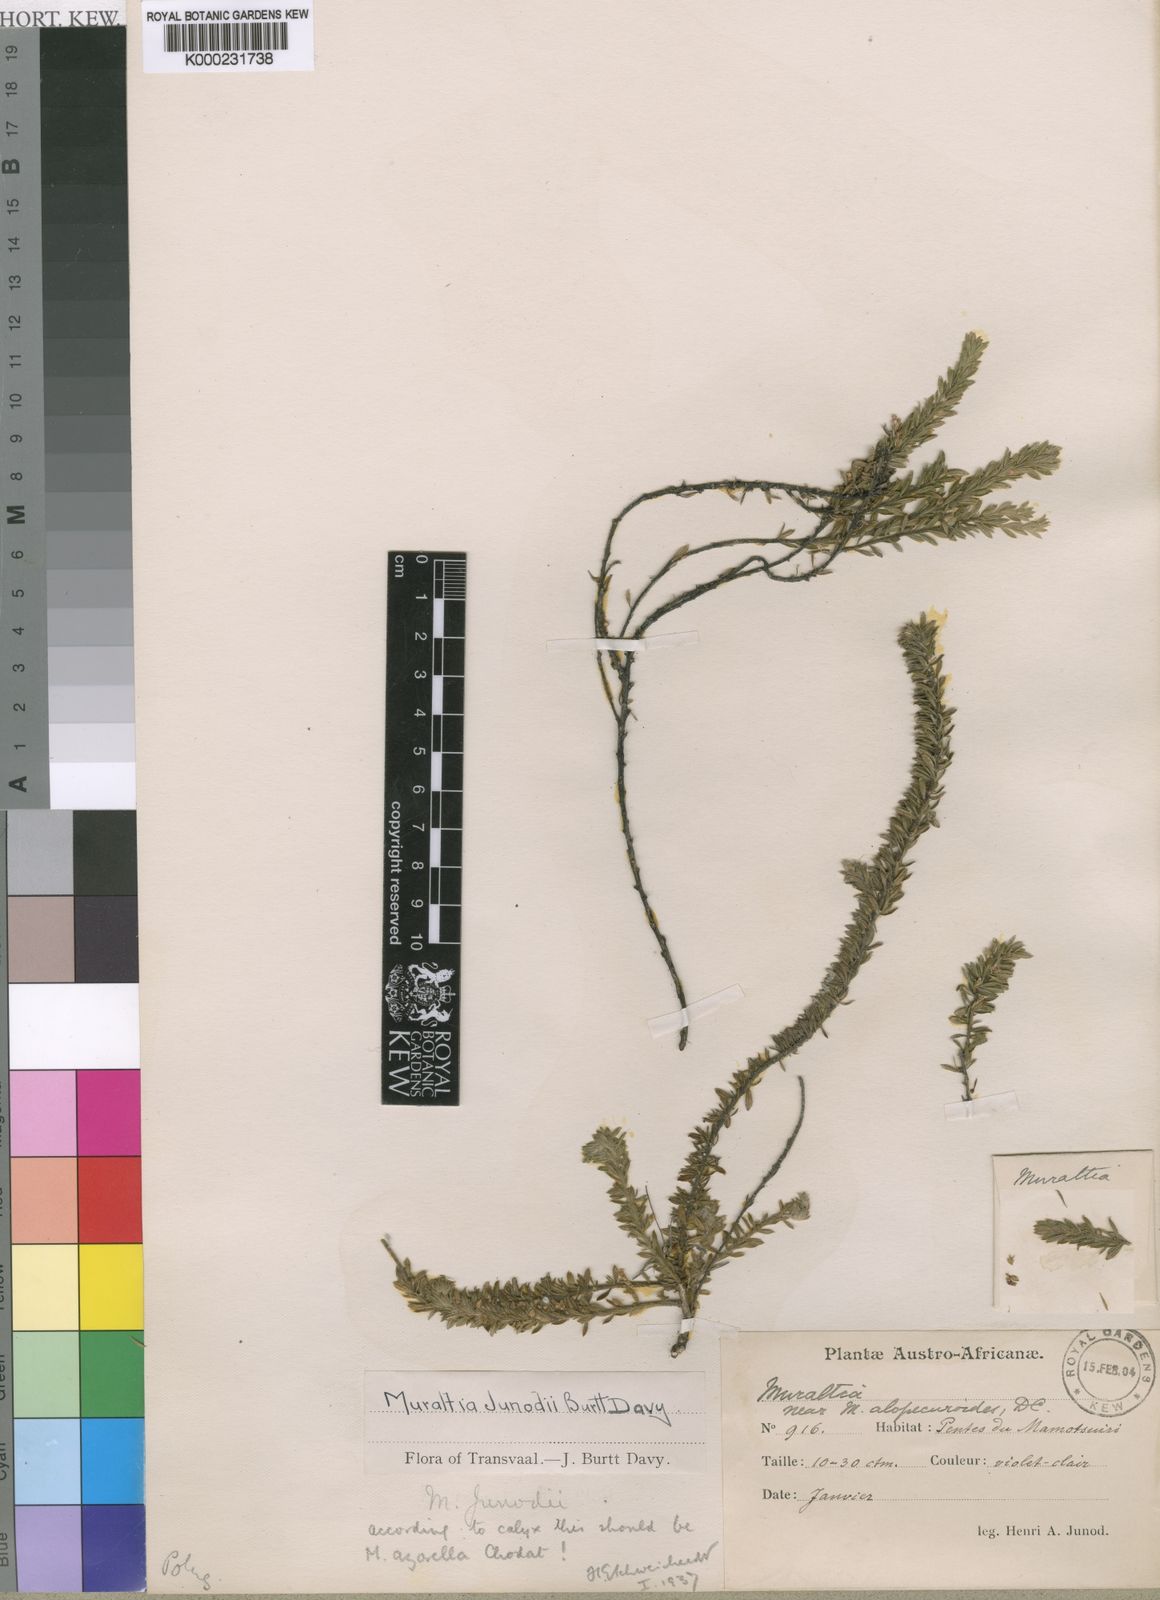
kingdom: Plantae
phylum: Tracheophyta
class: Magnoliopsida
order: Fabales
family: Polygalaceae
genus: Muraltia
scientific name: Muraltia empetroides
